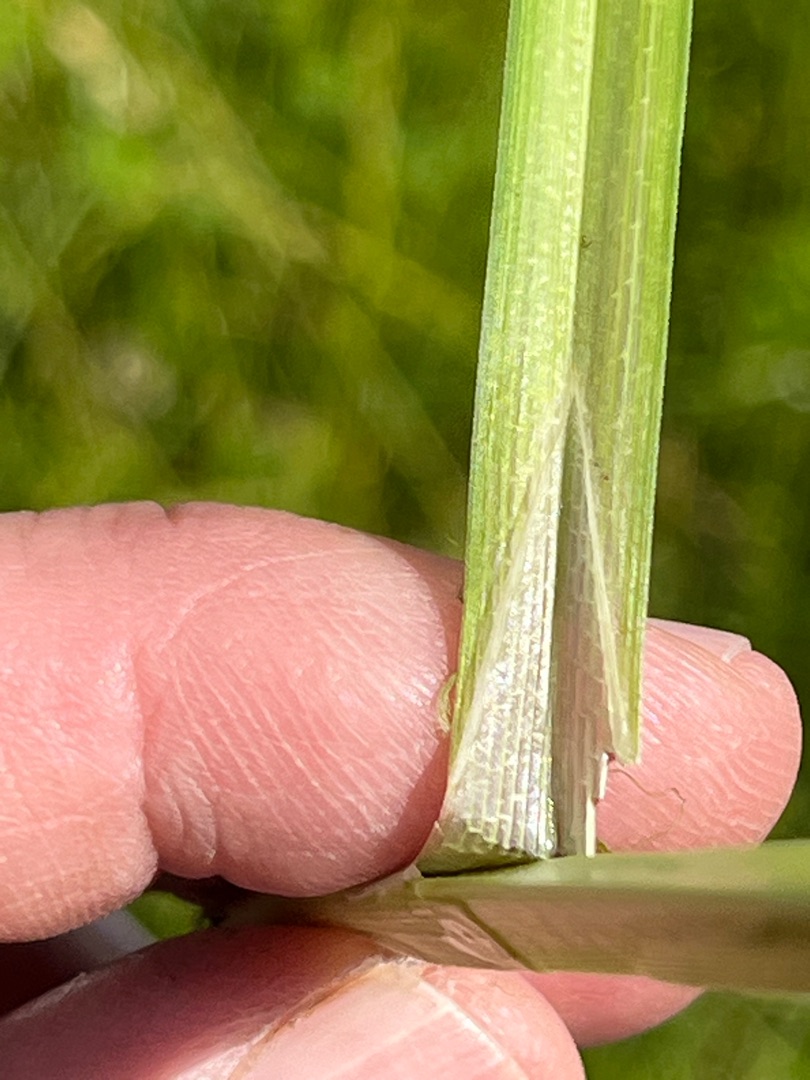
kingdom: Plantae
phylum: Tracheophyta
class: Liliopsida
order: Poales
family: Cyperaceae
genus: Carex
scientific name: Carex vesicaria
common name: Blære-star
